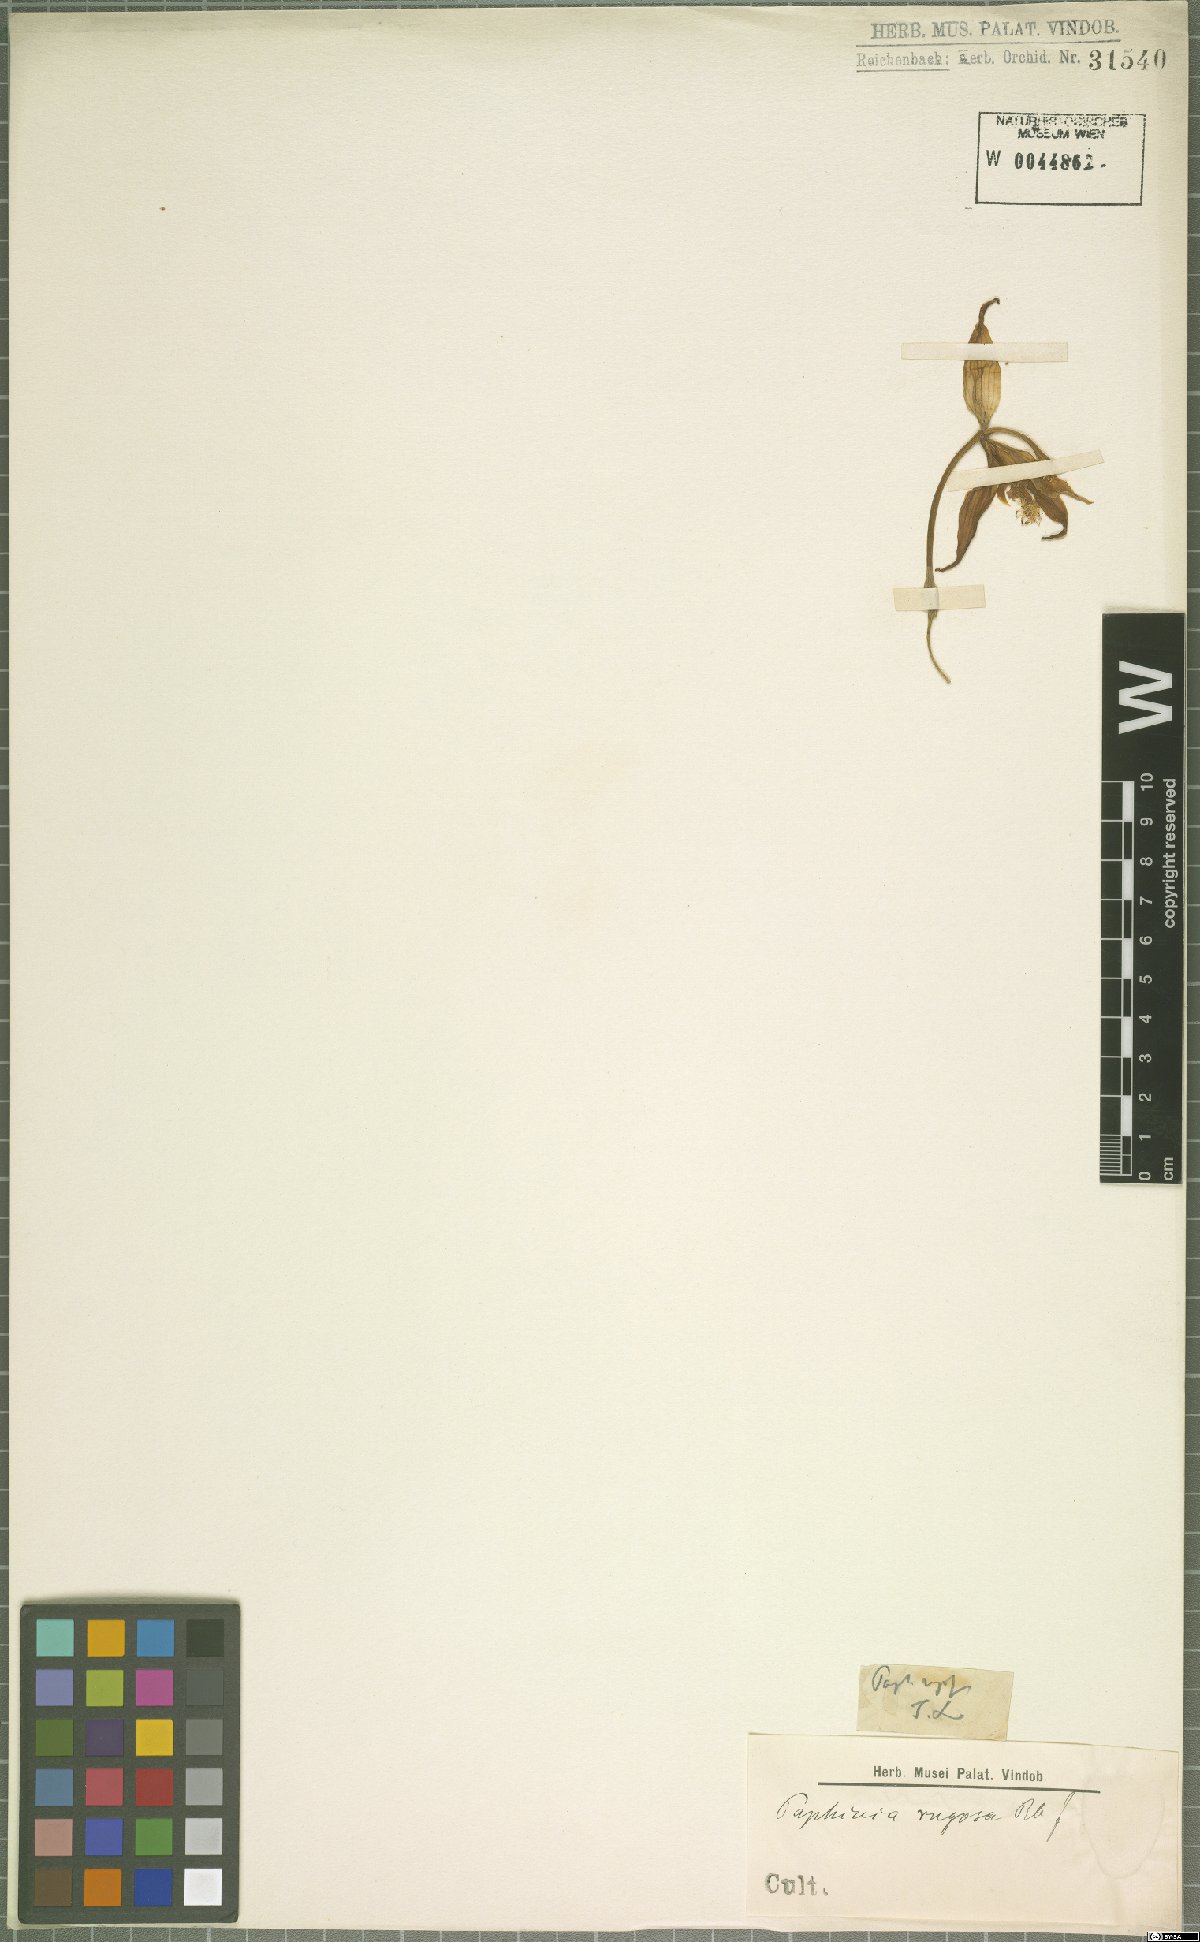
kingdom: Plantae
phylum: Tracheophyta
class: Liliopsida
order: Asparagales
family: Orchidaceae
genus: Paphinia
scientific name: Paphinia rugosa
